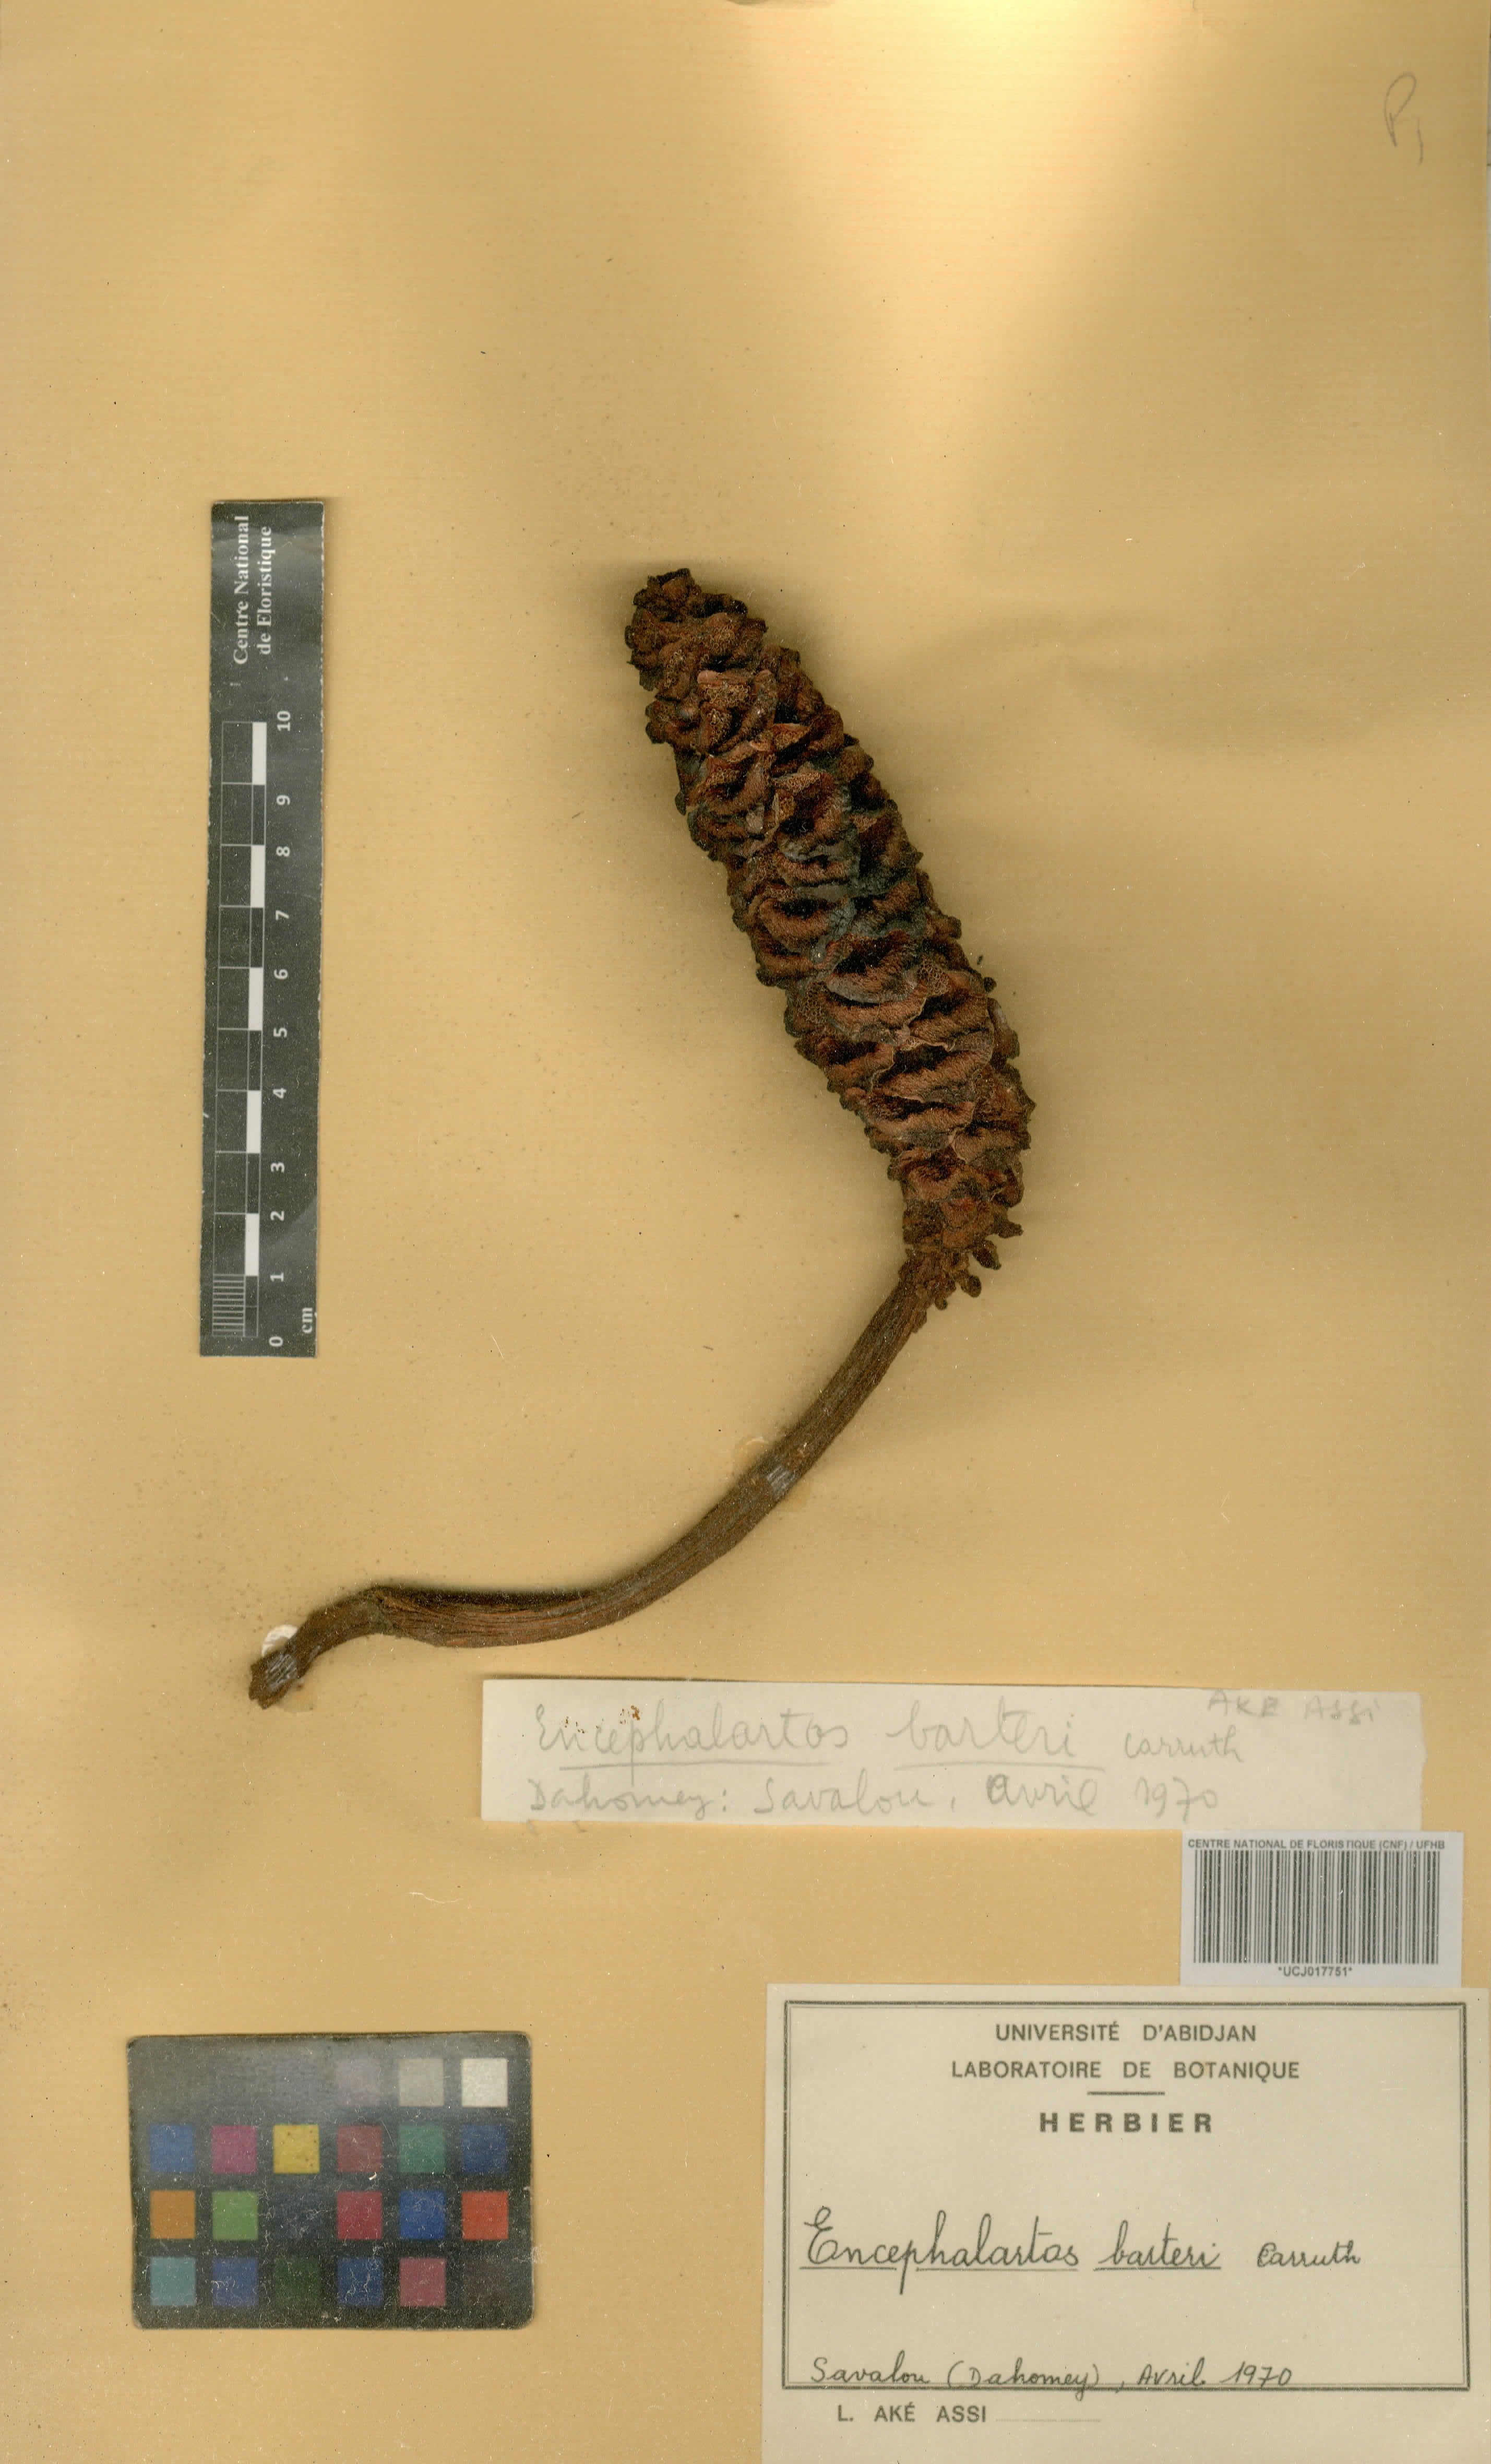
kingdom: Plantae
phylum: Tracheophyta
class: Cycadopsida
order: Cycadales
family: Zamiaceae
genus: Encephalartos
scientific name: Encephalartos barteri
